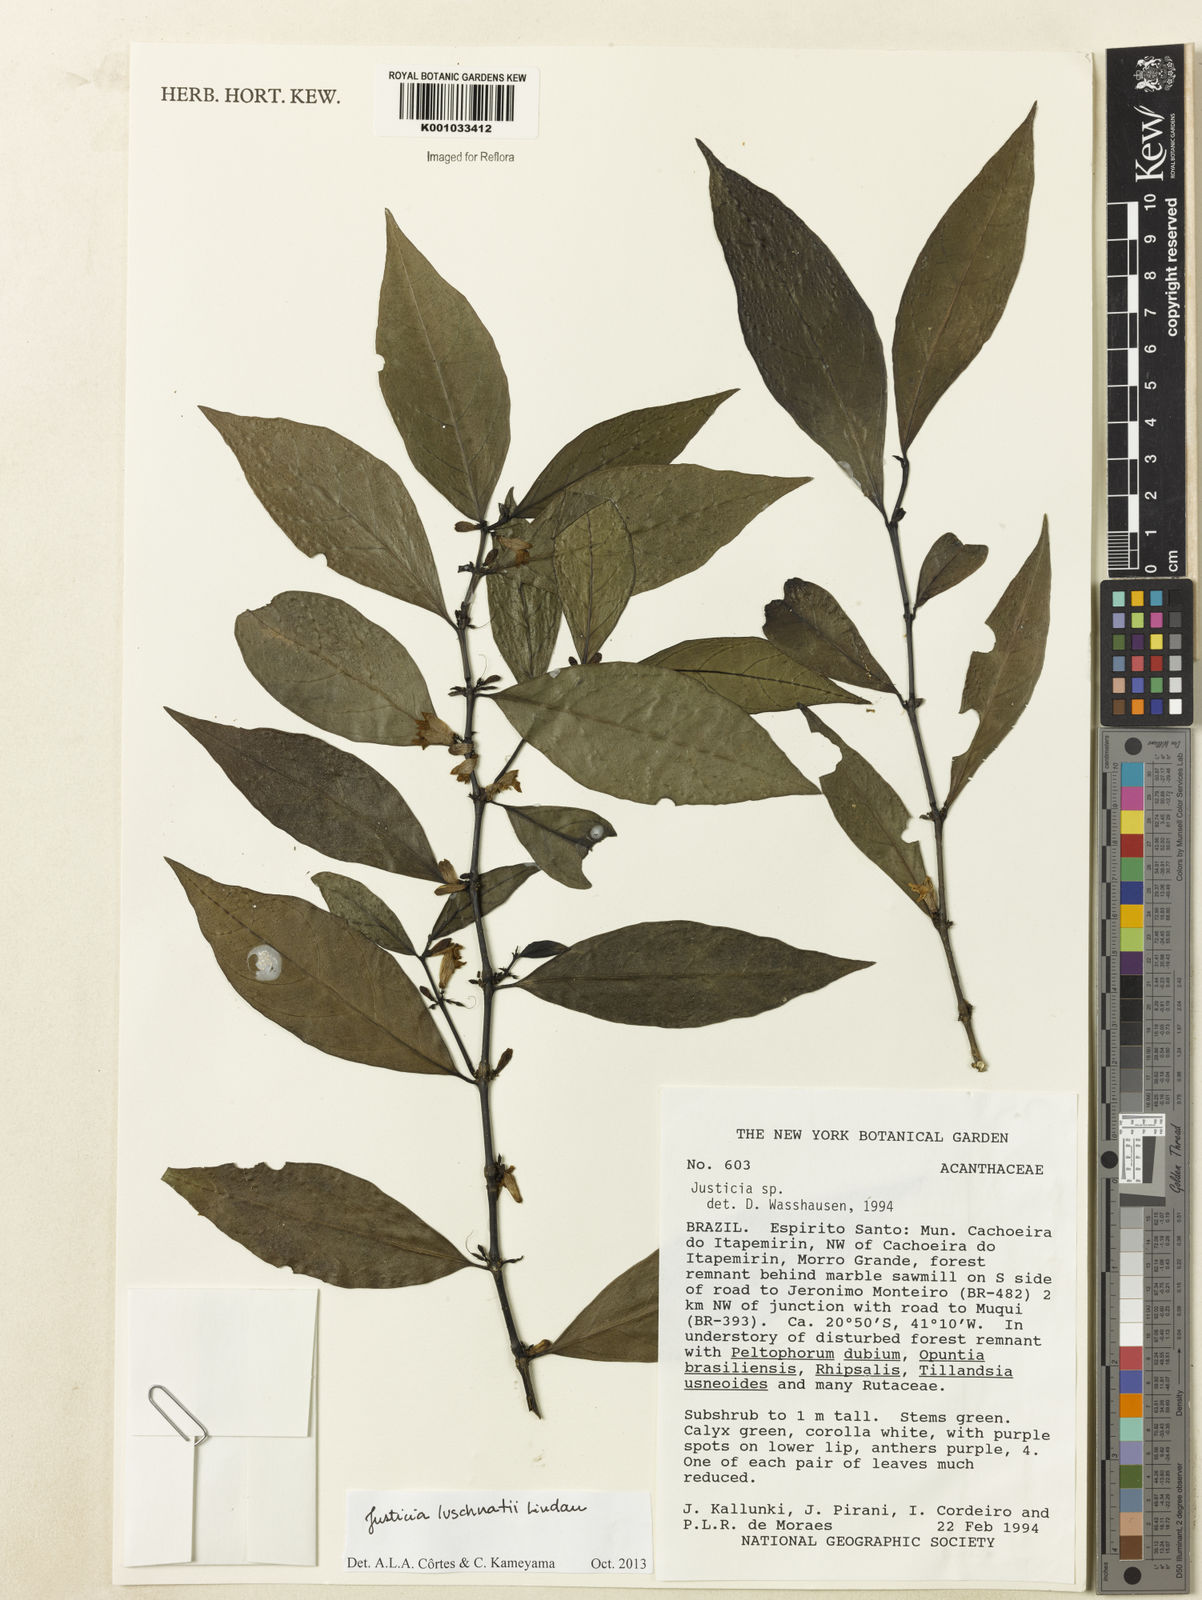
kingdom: Plantae
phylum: Tracheophyta
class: Magnoliopsida
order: Lamiales
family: Acanthaceae
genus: Justicia
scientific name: Justicia luschnathii
